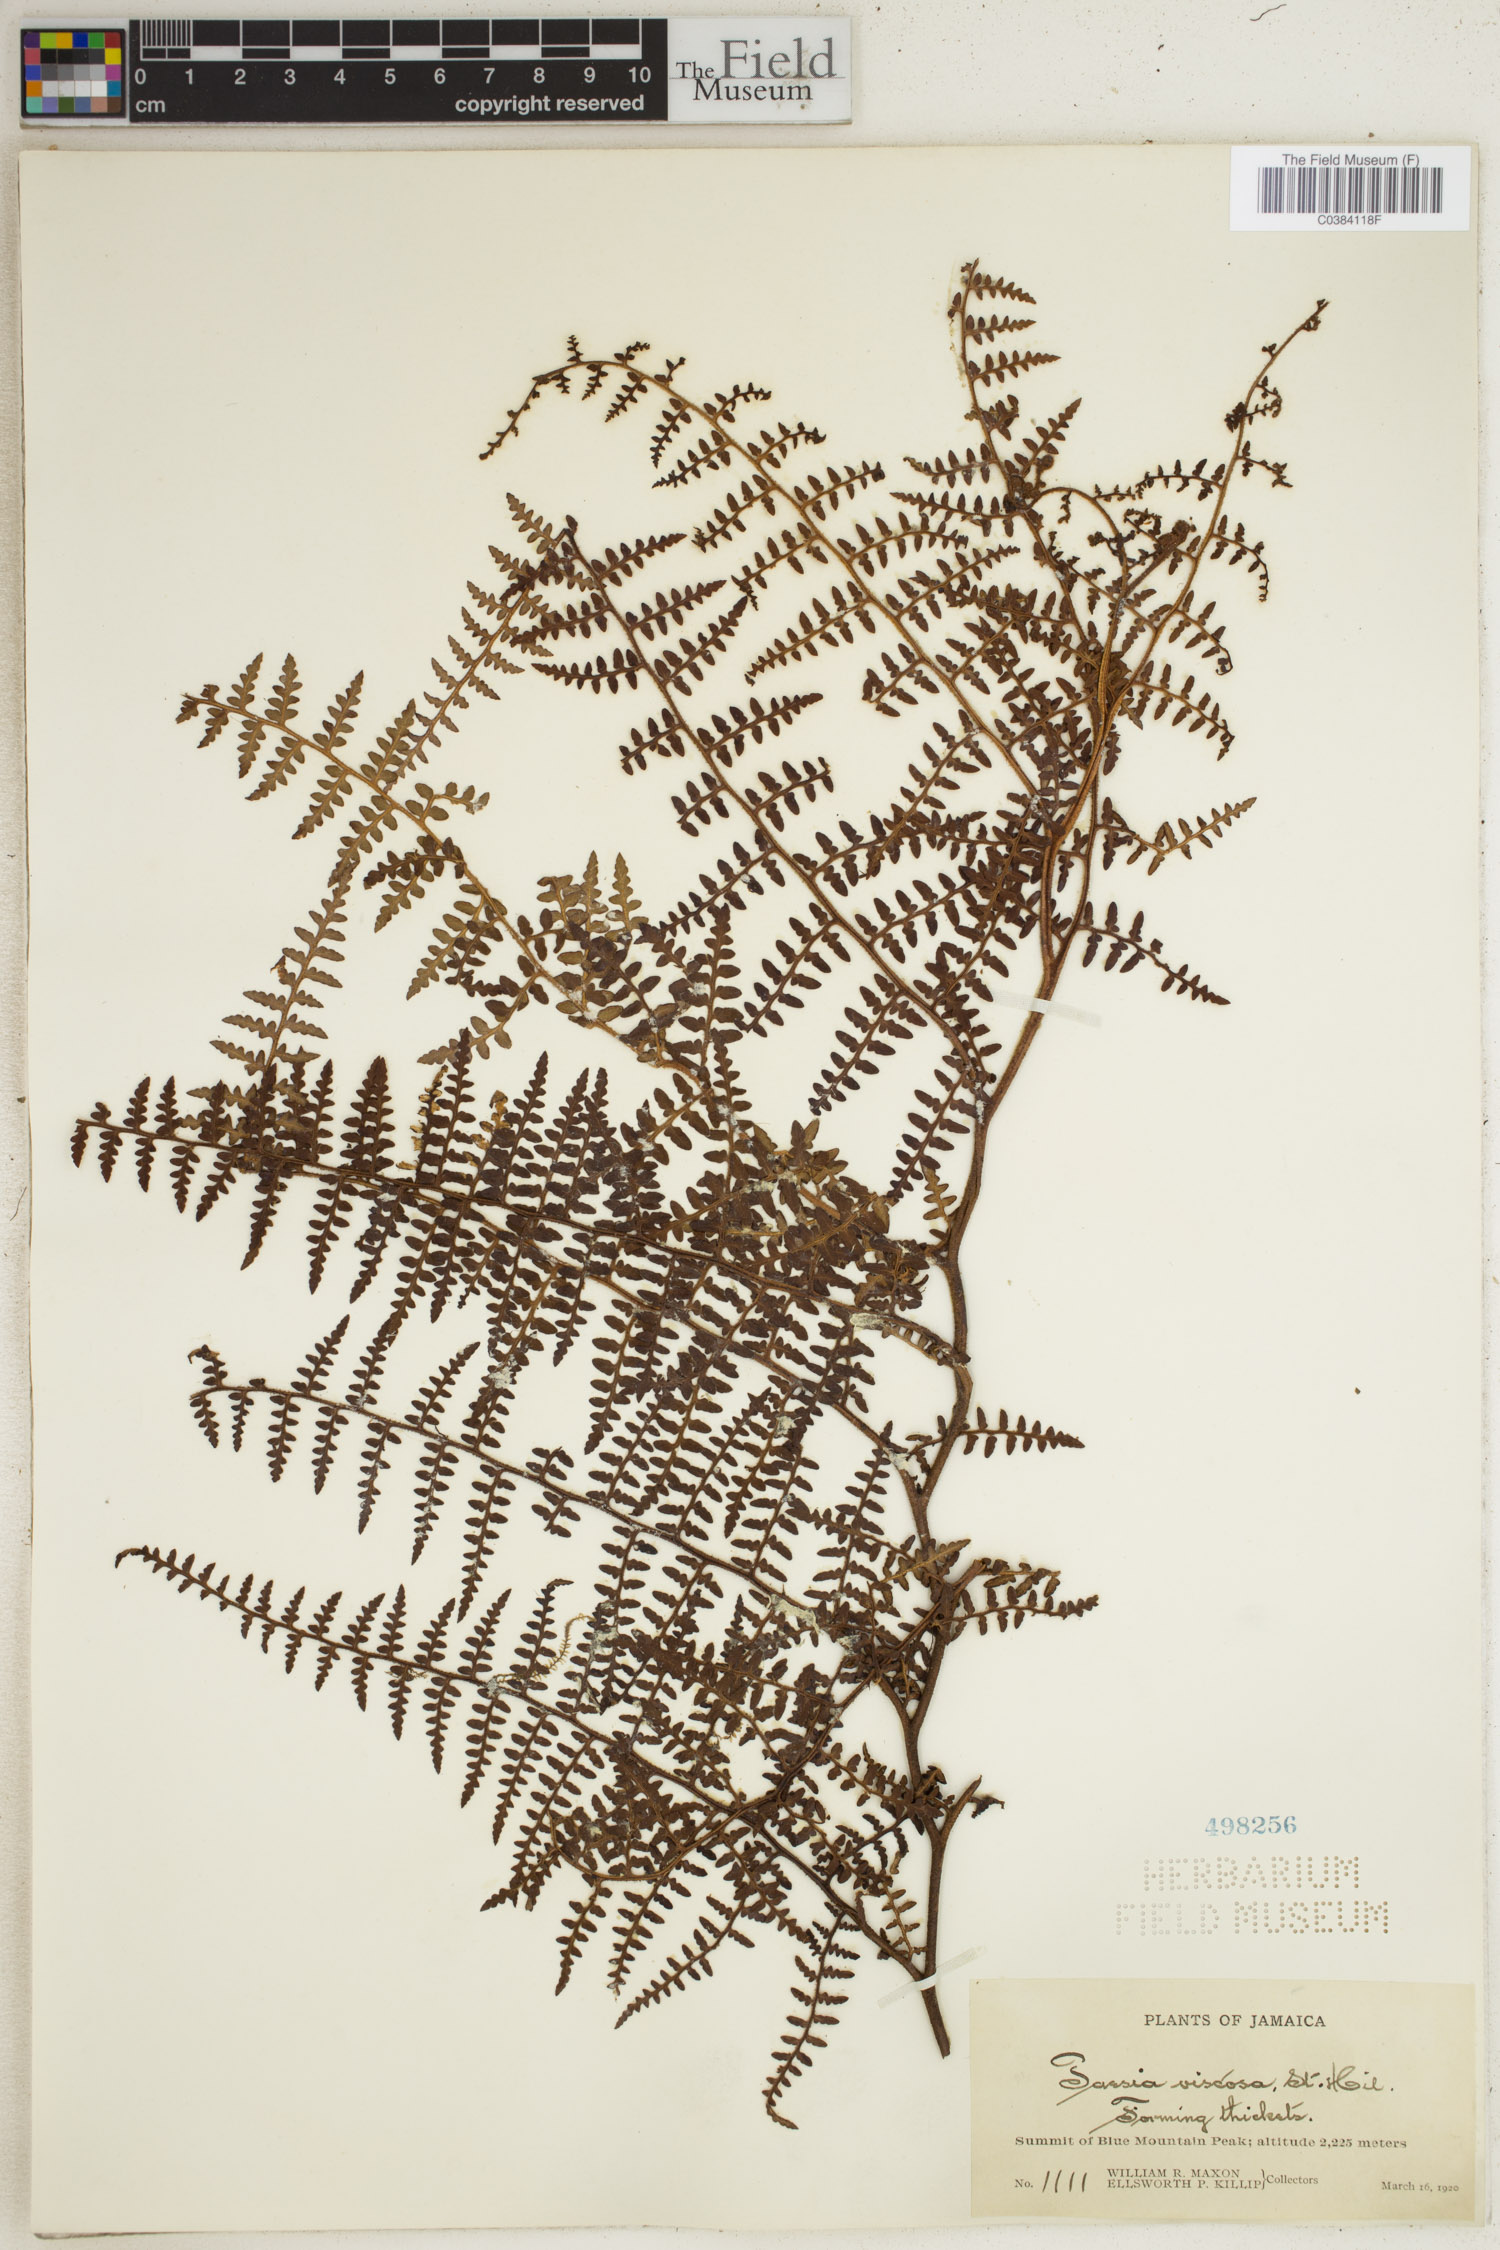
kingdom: Plantae
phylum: Tracheophyta
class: Polypodiopsida
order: Polypodiales
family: Dennstaedtiaceae
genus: Paesia
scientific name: Paesia glandulosa
